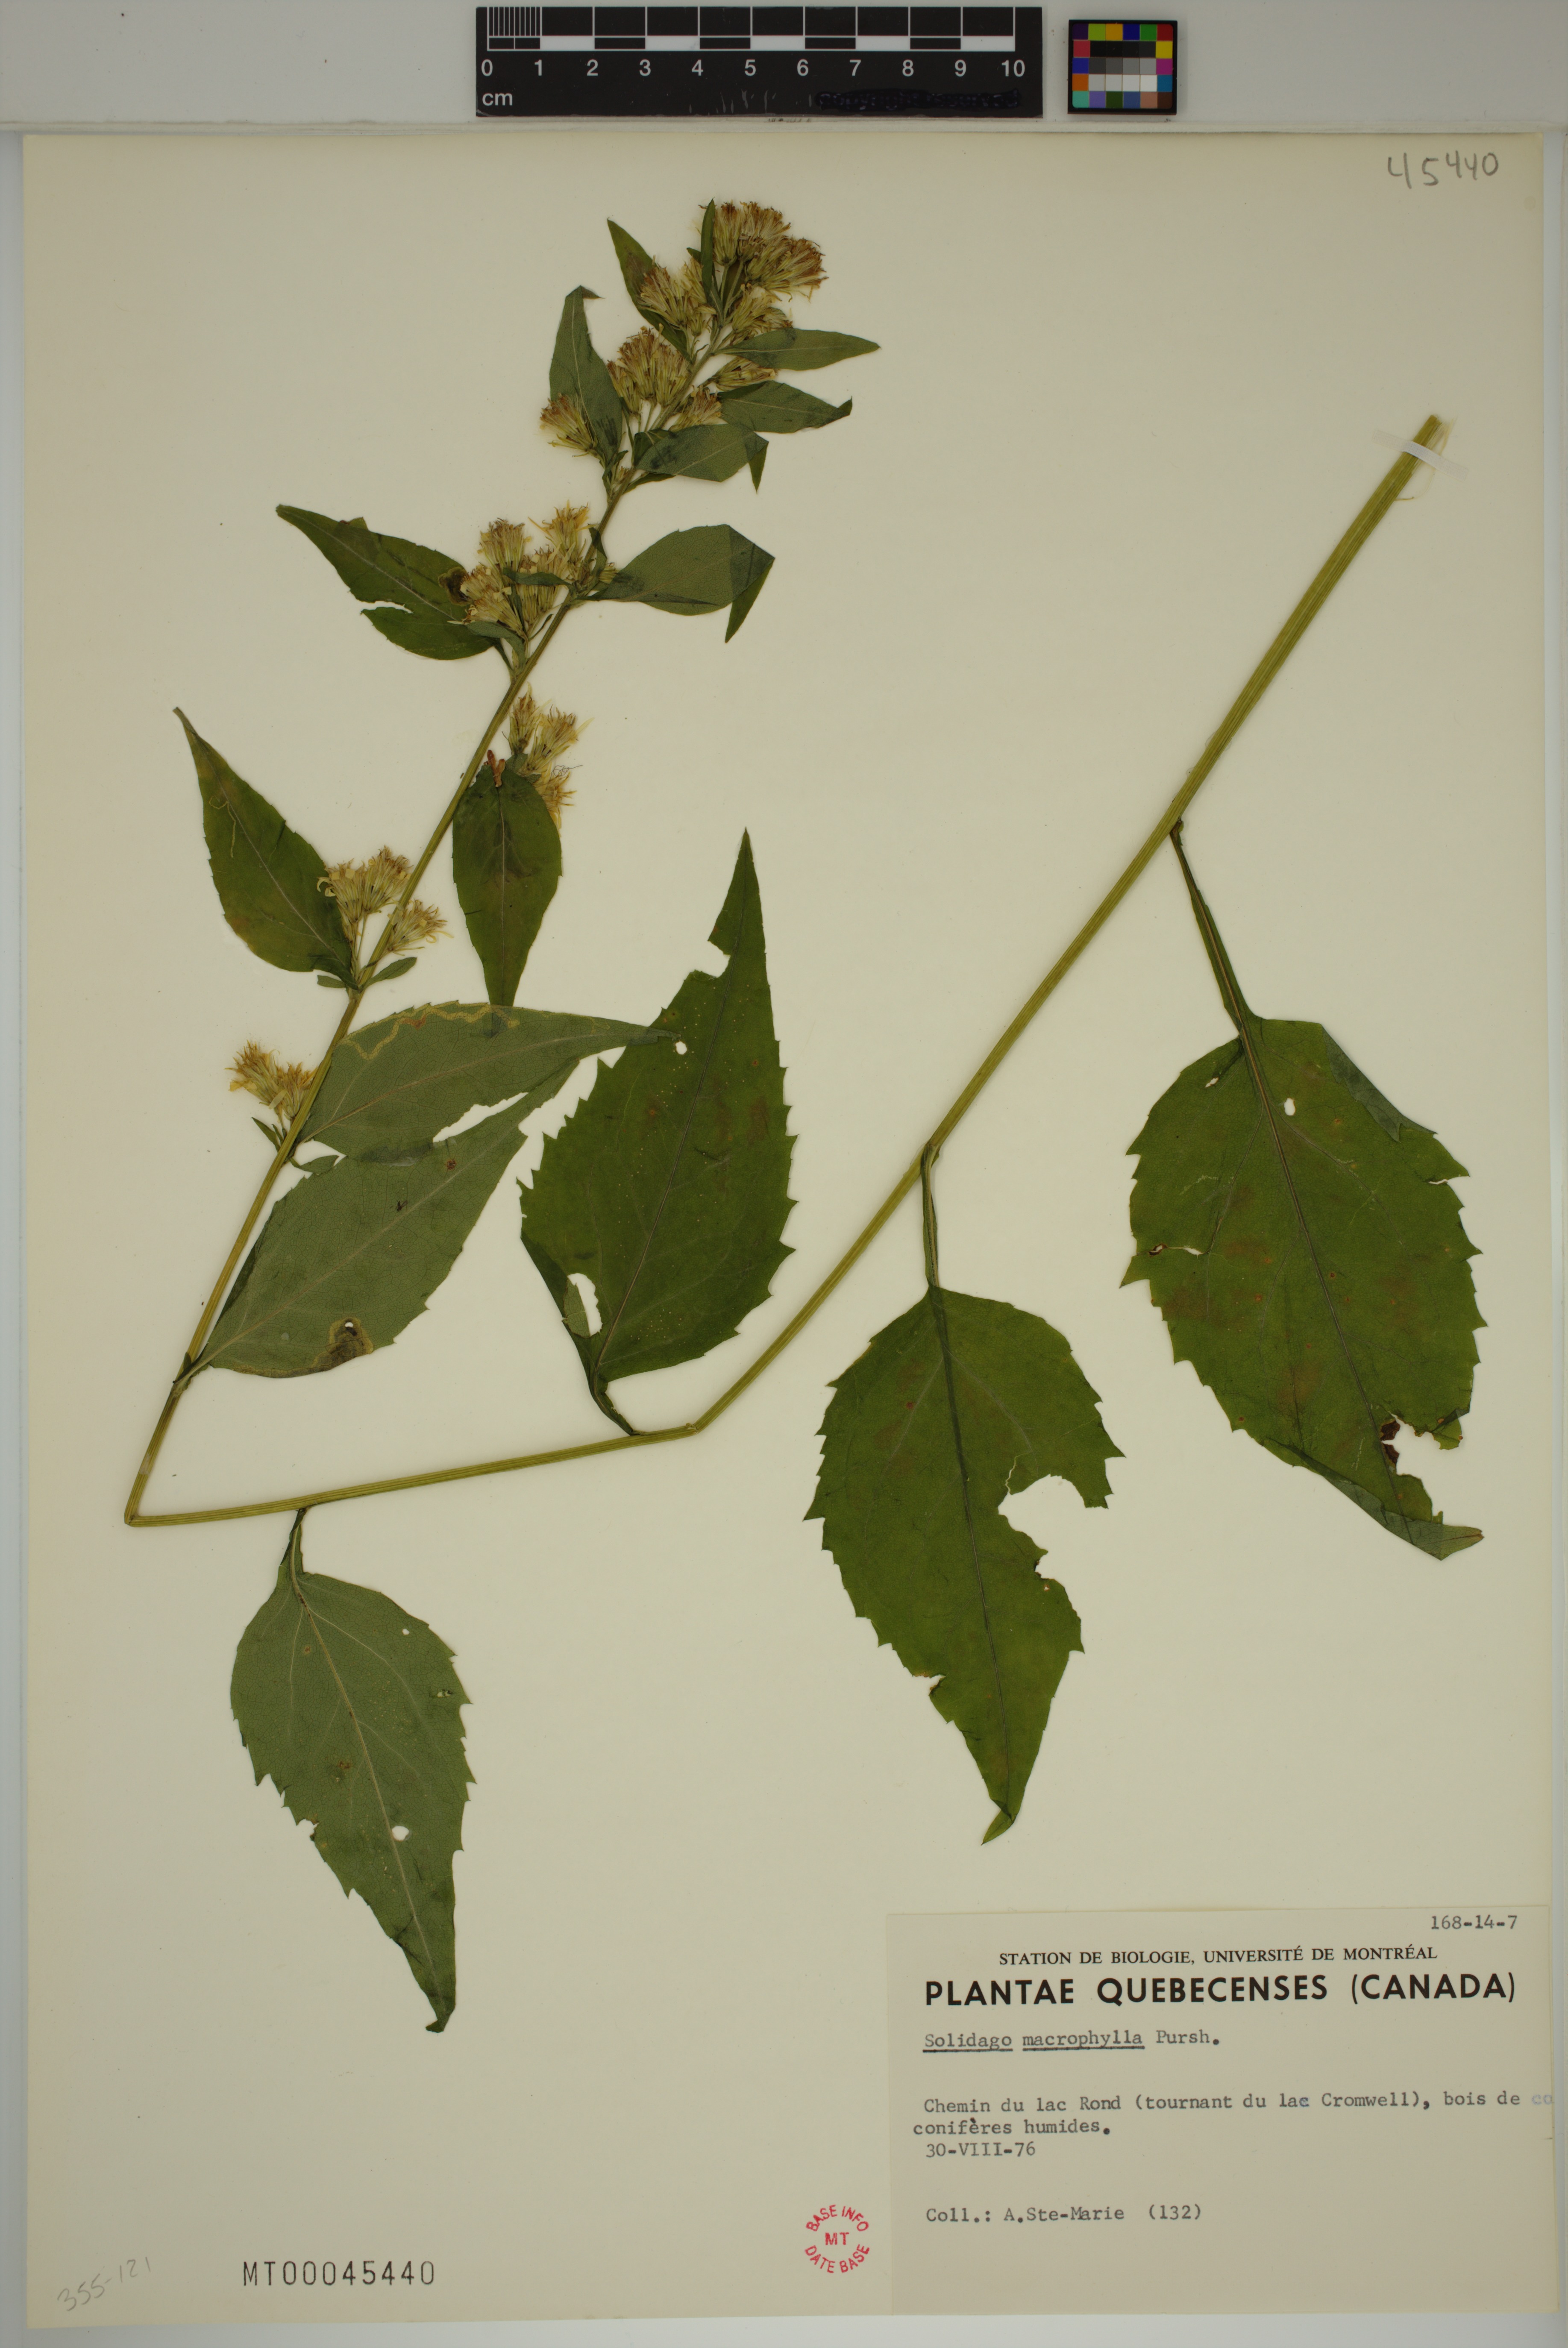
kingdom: Plantae
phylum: Tracheophyta
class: Magnoliopsida
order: Asterales
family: Asteraceae
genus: Solidago
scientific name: Solidago macrophylla
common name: Large-leaved goldenrod
